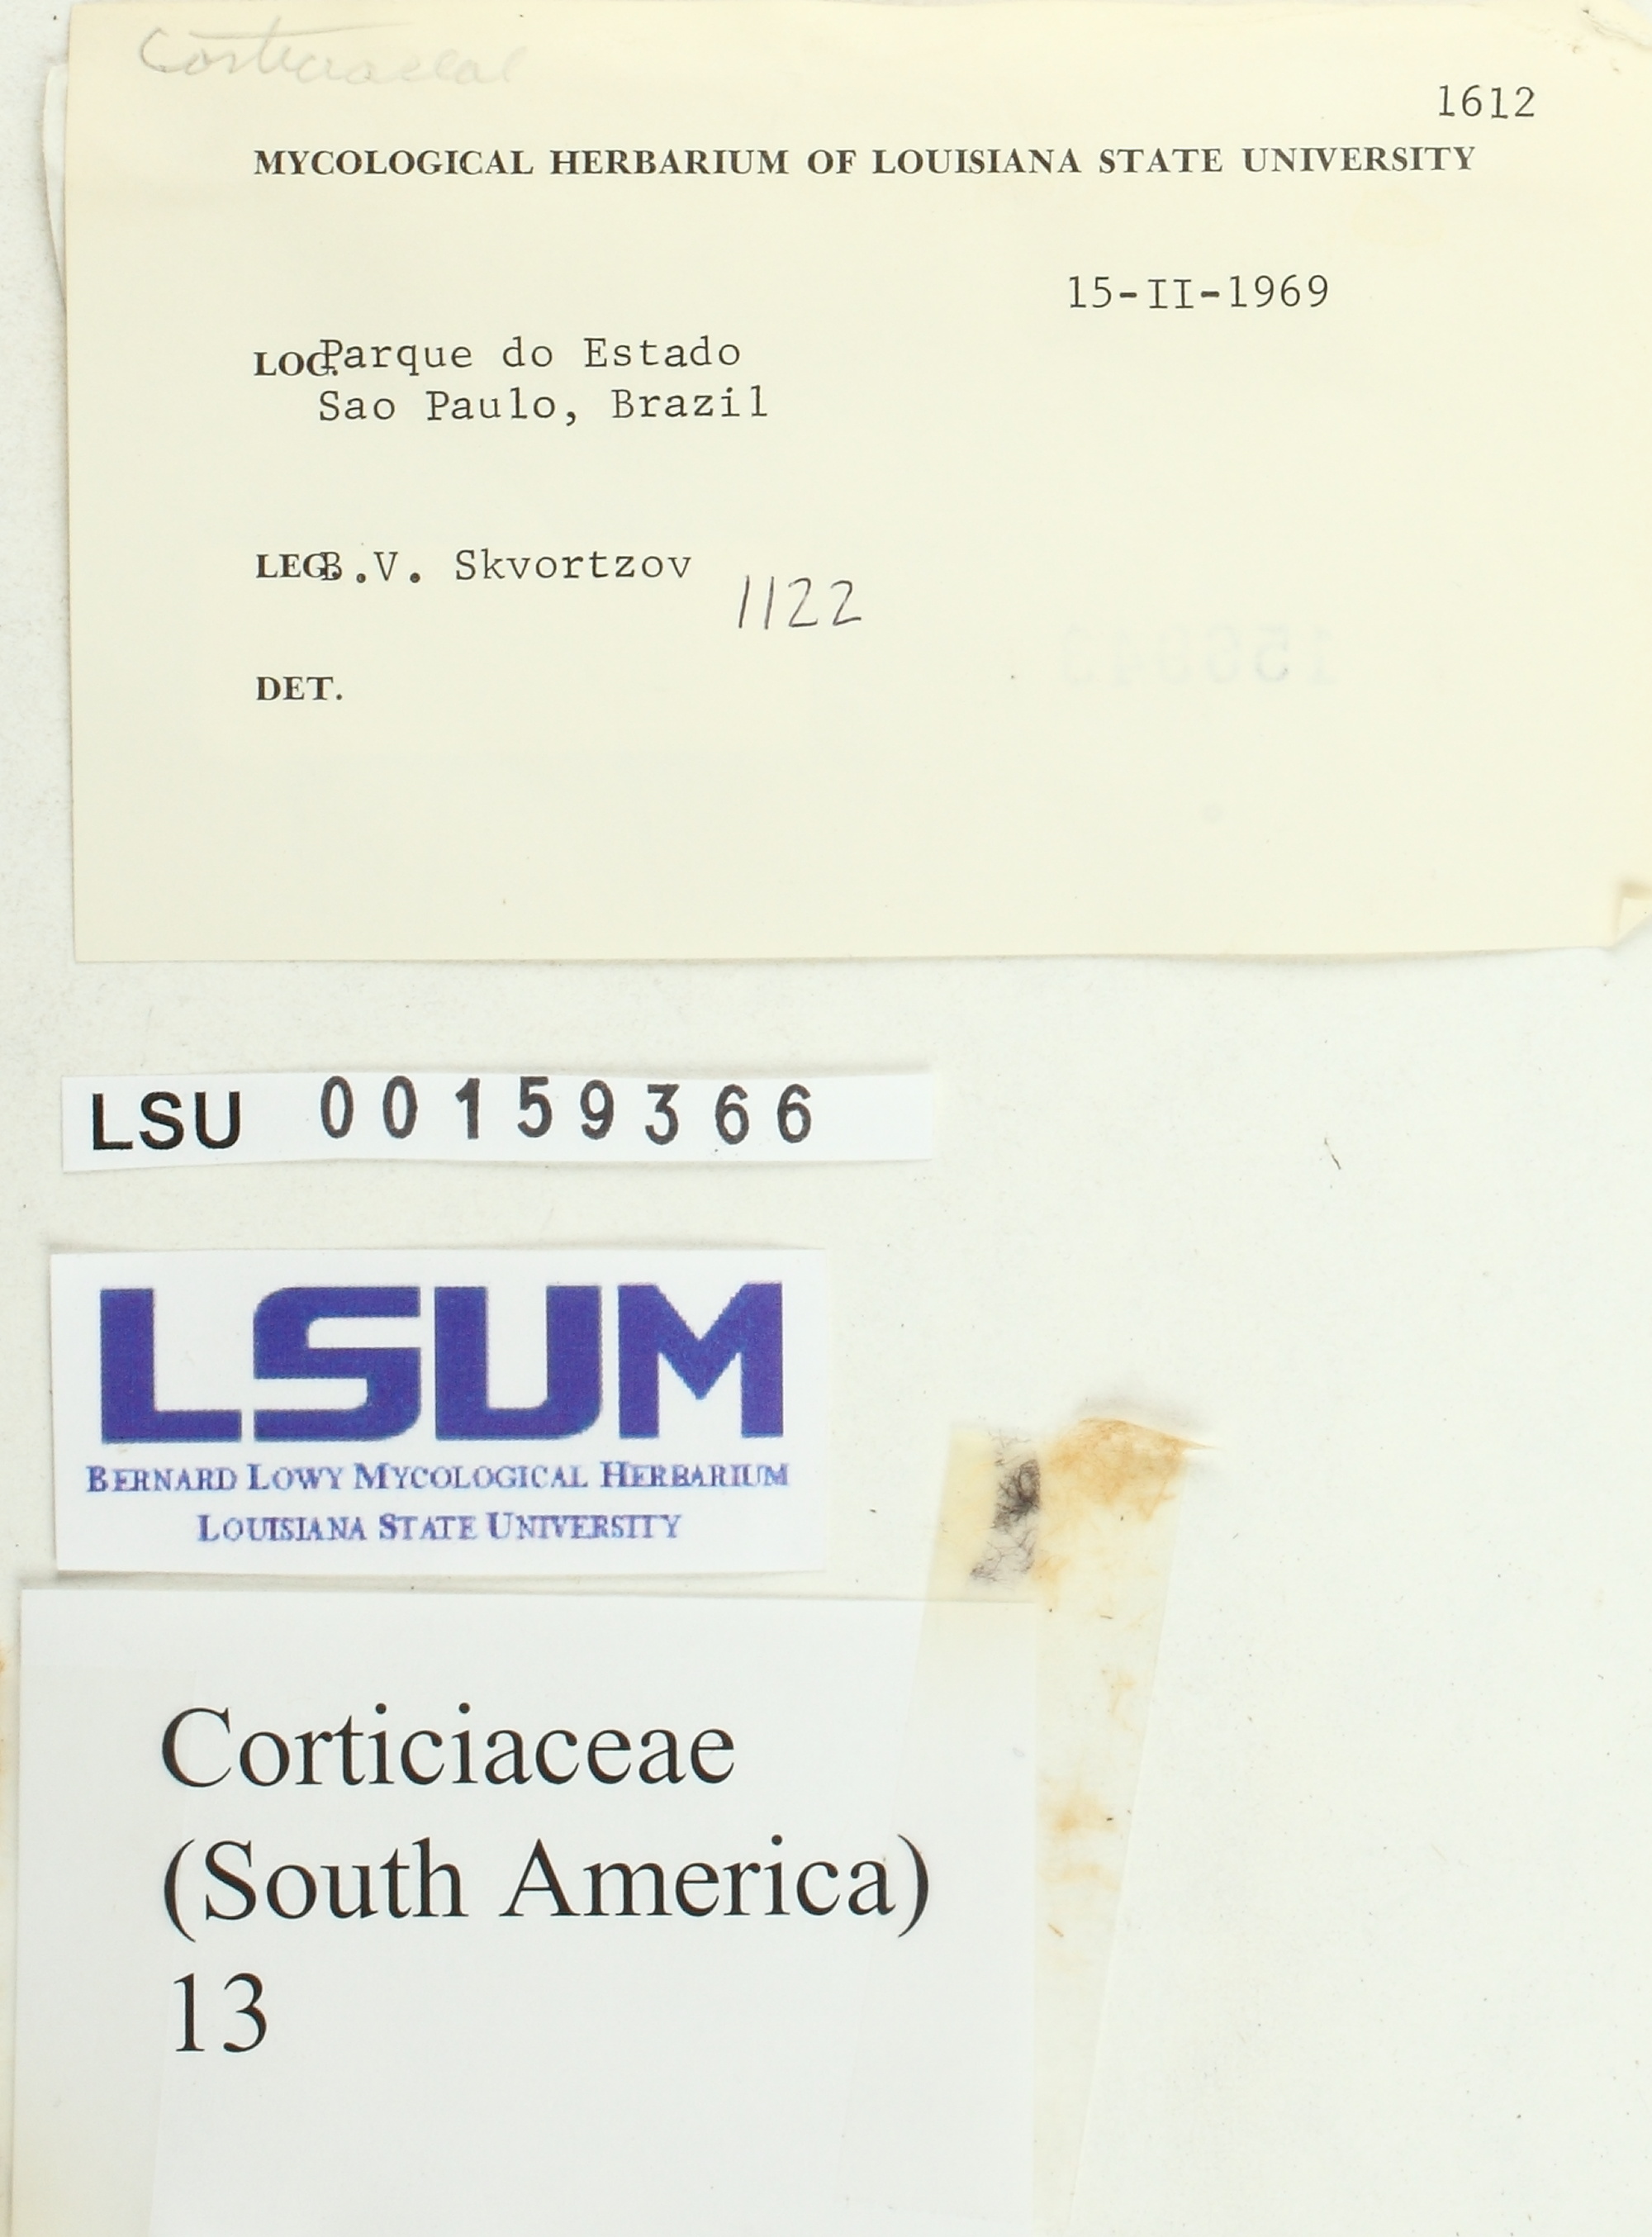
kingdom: Fungi
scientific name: Fungi
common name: Fungi
